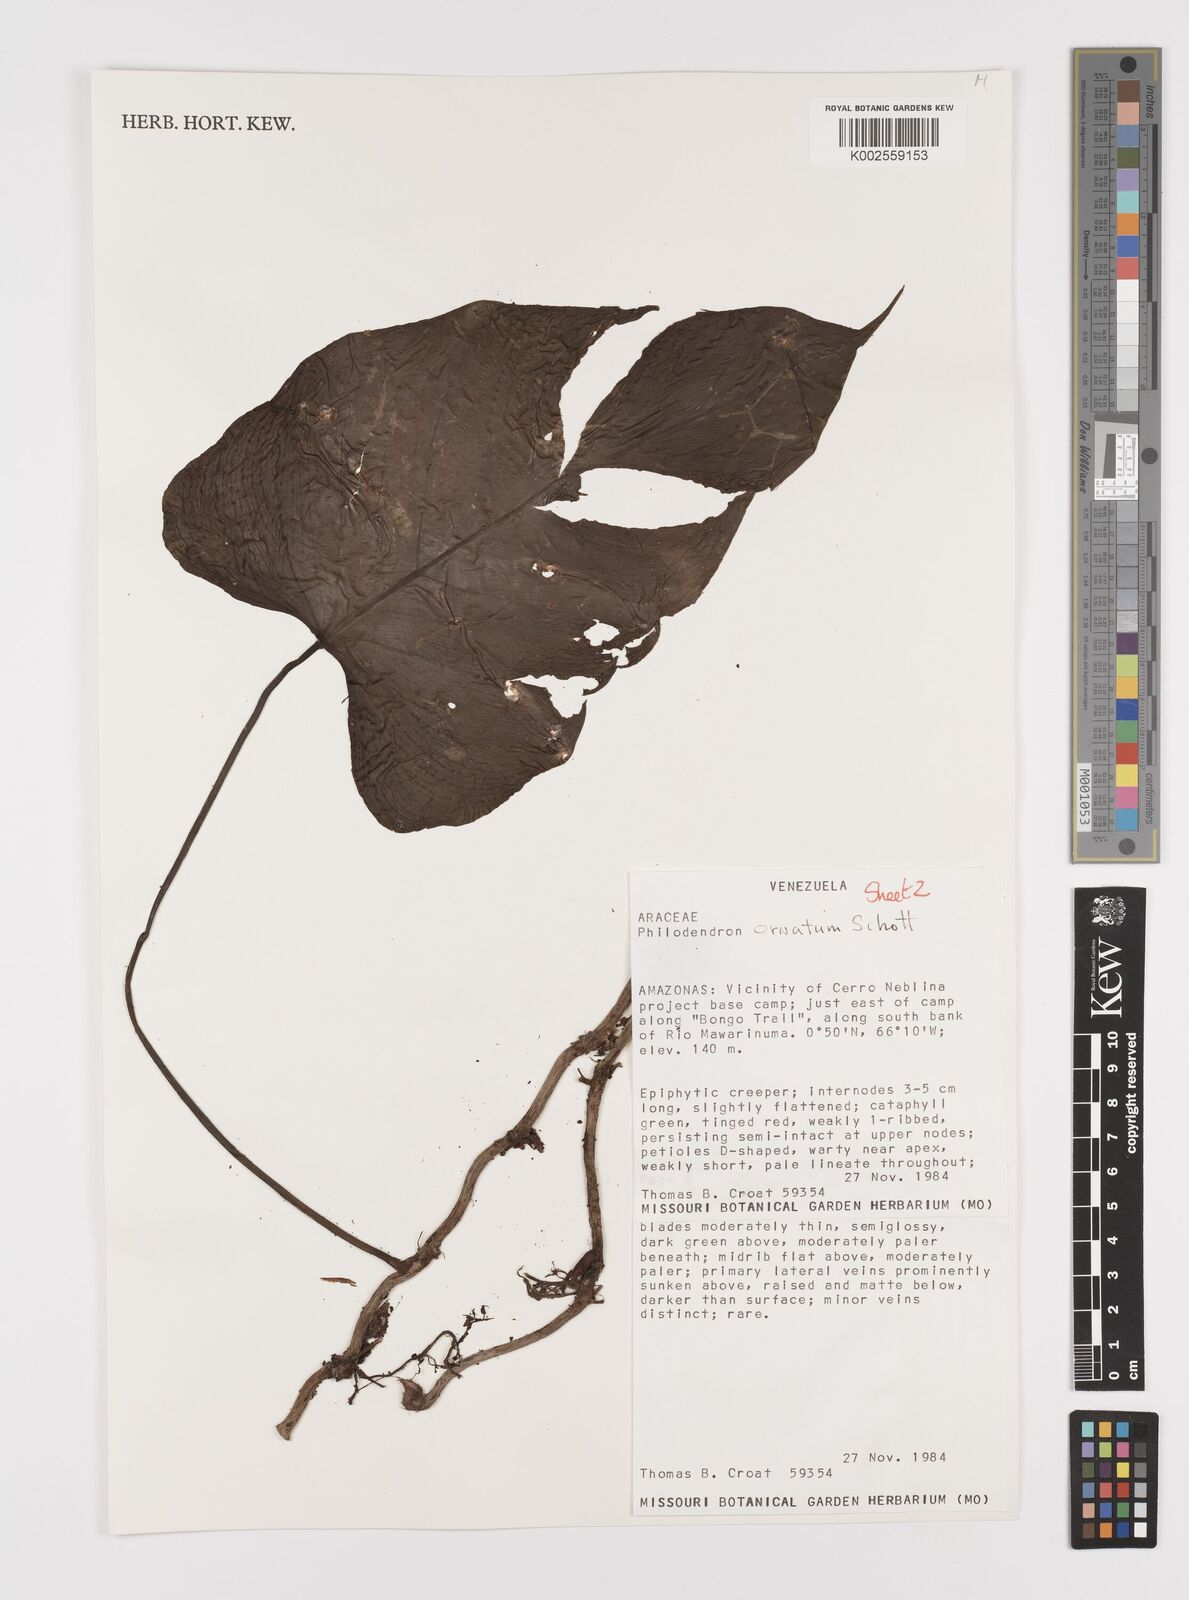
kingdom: Plantae
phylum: Tracheophyta
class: Liliopsida
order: Alismatales
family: Araceae
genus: Philodendron
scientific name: Philodendron ornatum
